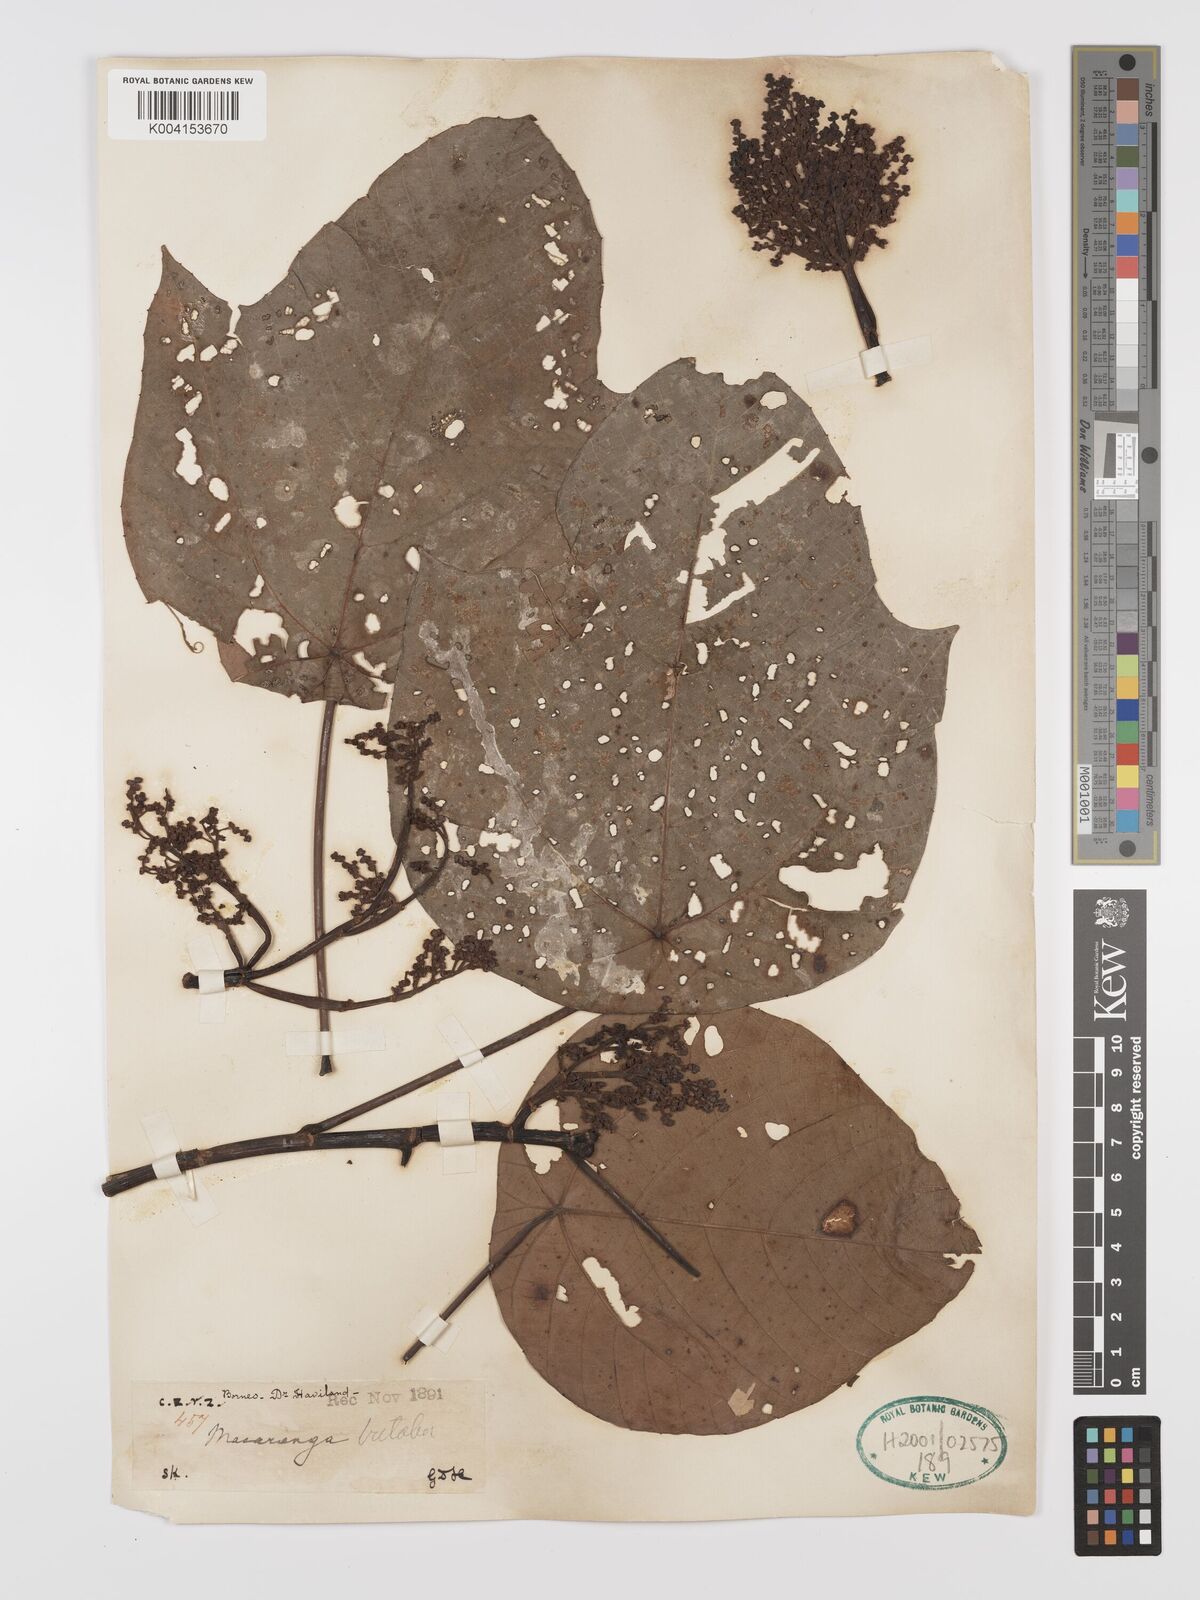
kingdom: Plantae
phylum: Tracheophyta
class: Magnoliopsida
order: Malpighiales
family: Euphorbiaceae
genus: Macaranga
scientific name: Macaranga triloba
